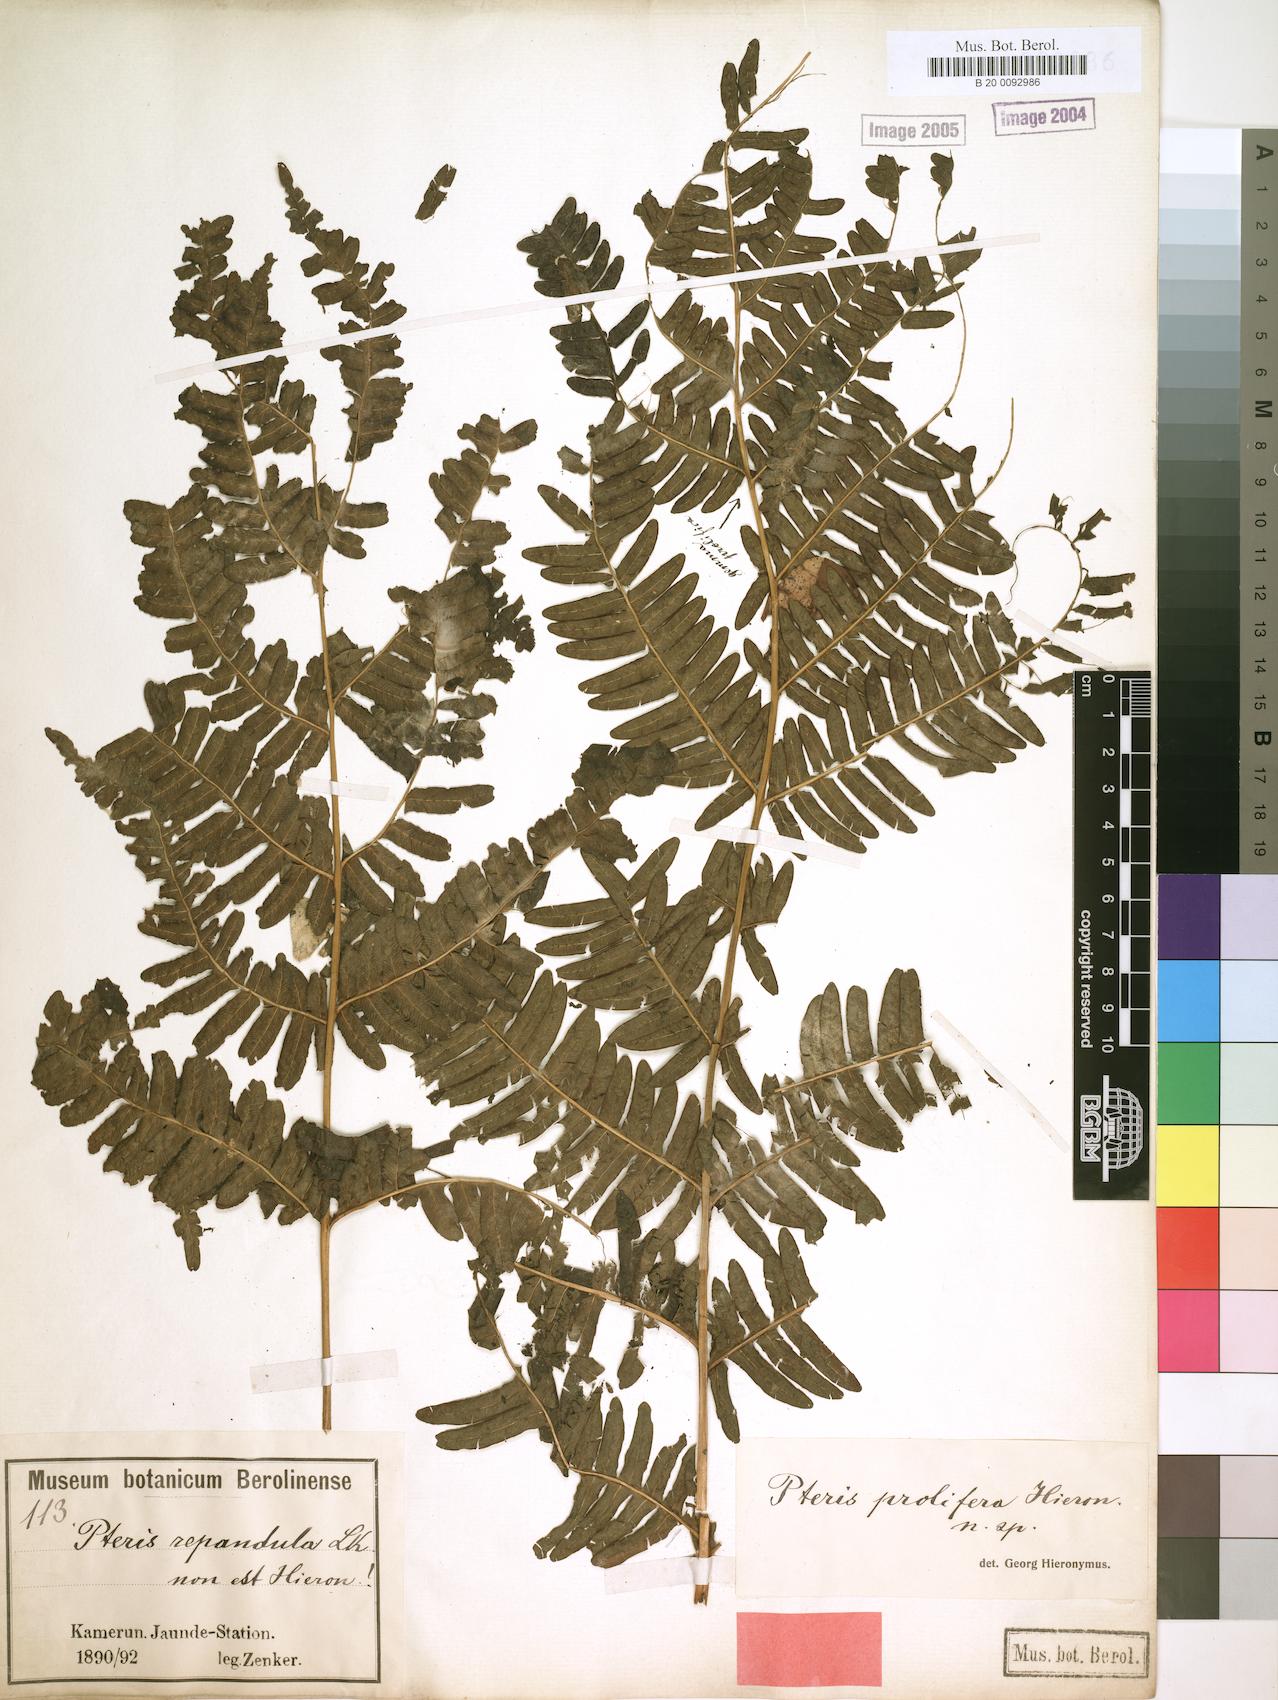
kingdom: Plantae
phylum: Tracheophyta
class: Polypodiopsida
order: Polypodiales
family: Pteridaceae
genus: Pteris
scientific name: Pteris preussii
